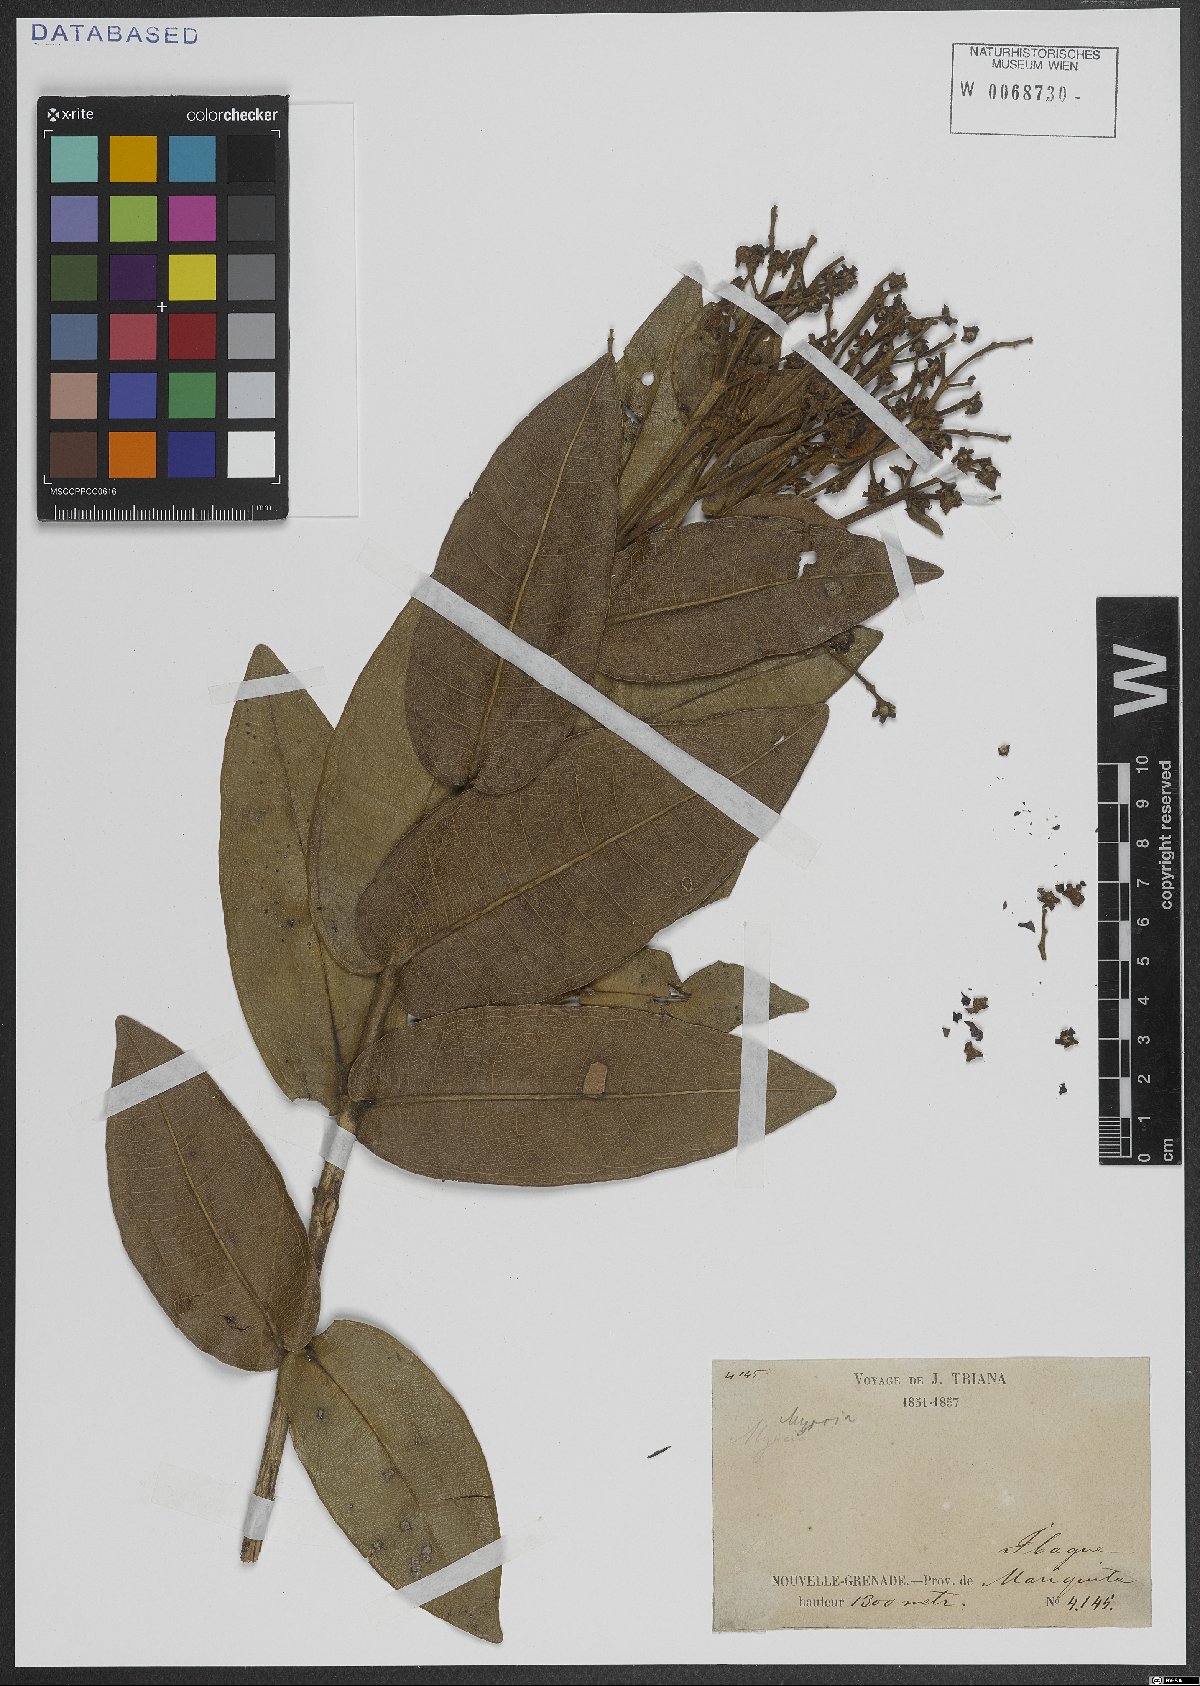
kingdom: Plantae
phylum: Tracheophyta
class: Magnoliopsida
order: Myrtales
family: Myrtaceae
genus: Myrcia
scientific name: Myrcia
